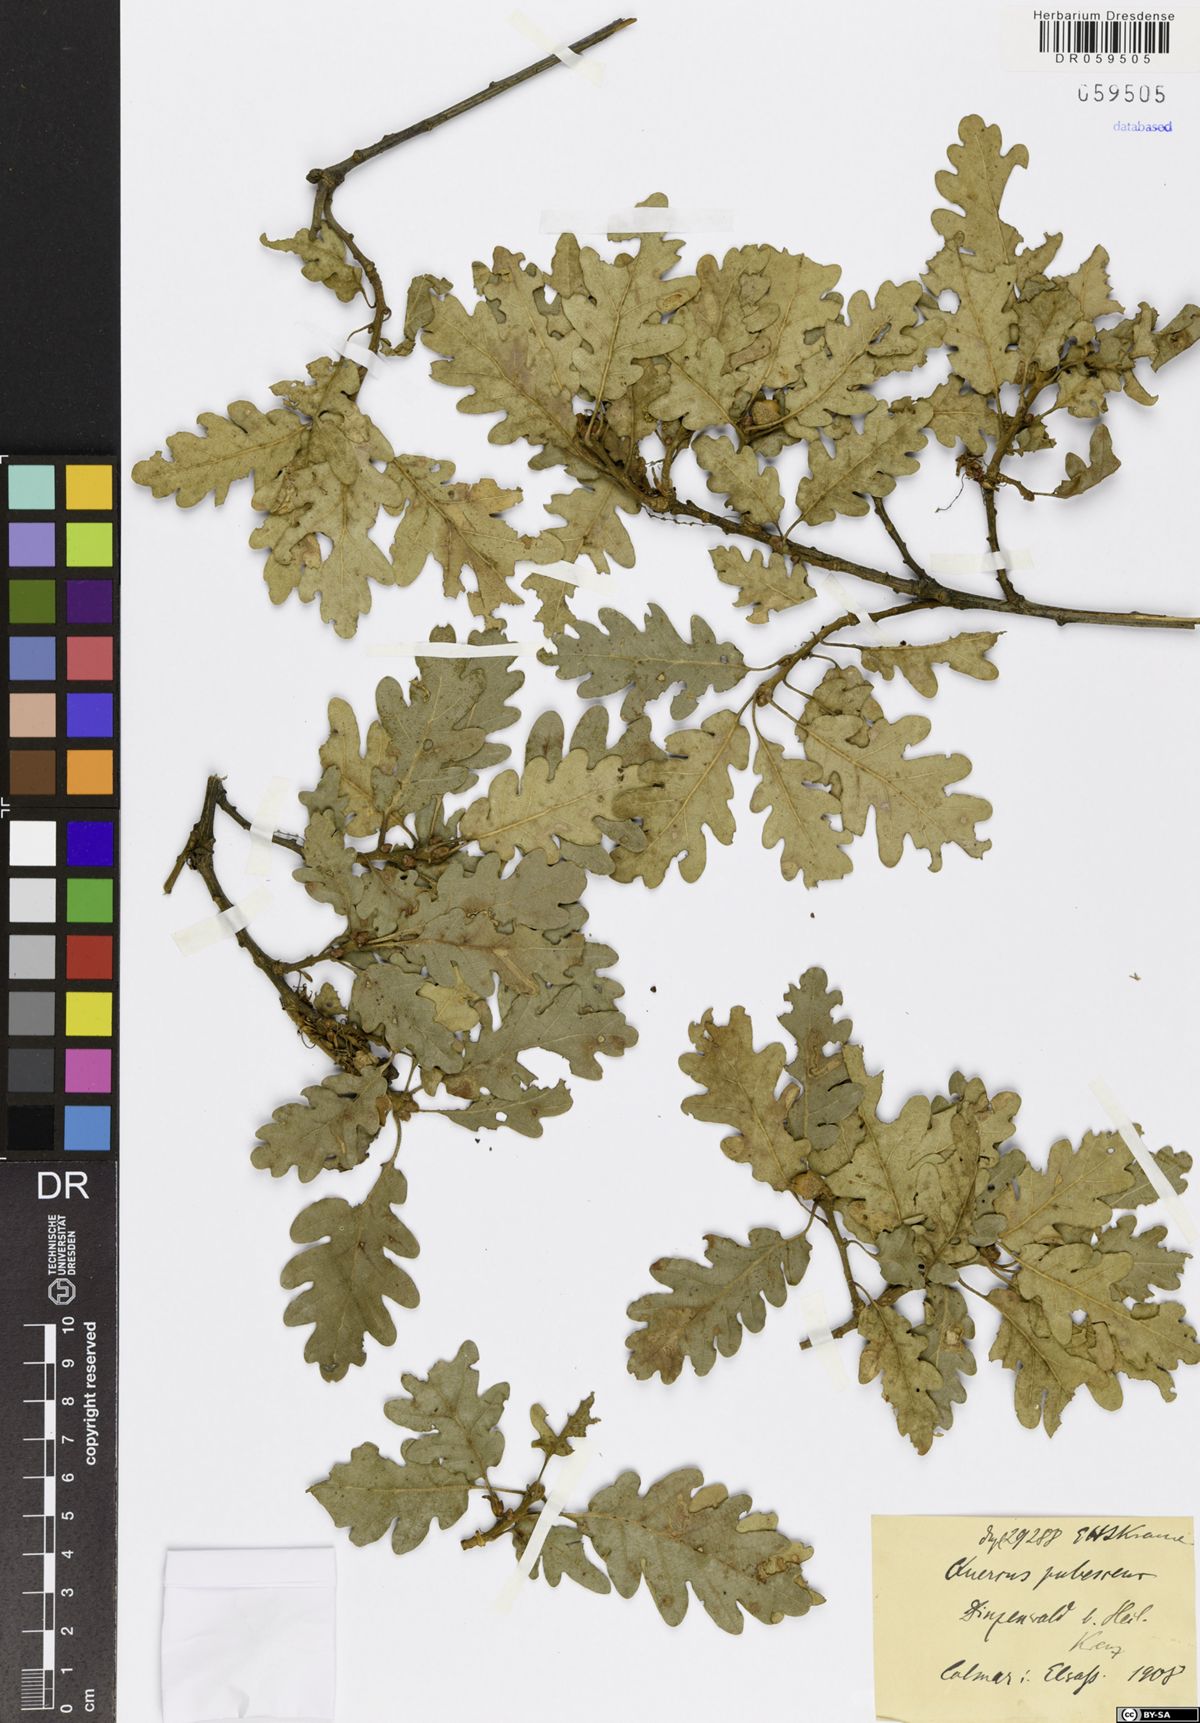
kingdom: Plantae
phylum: Tracheophyta
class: Magnoliopsida
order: Fagales
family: Fagaceae
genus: Quercus
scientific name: Quercus pubescens
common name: Downy oak
